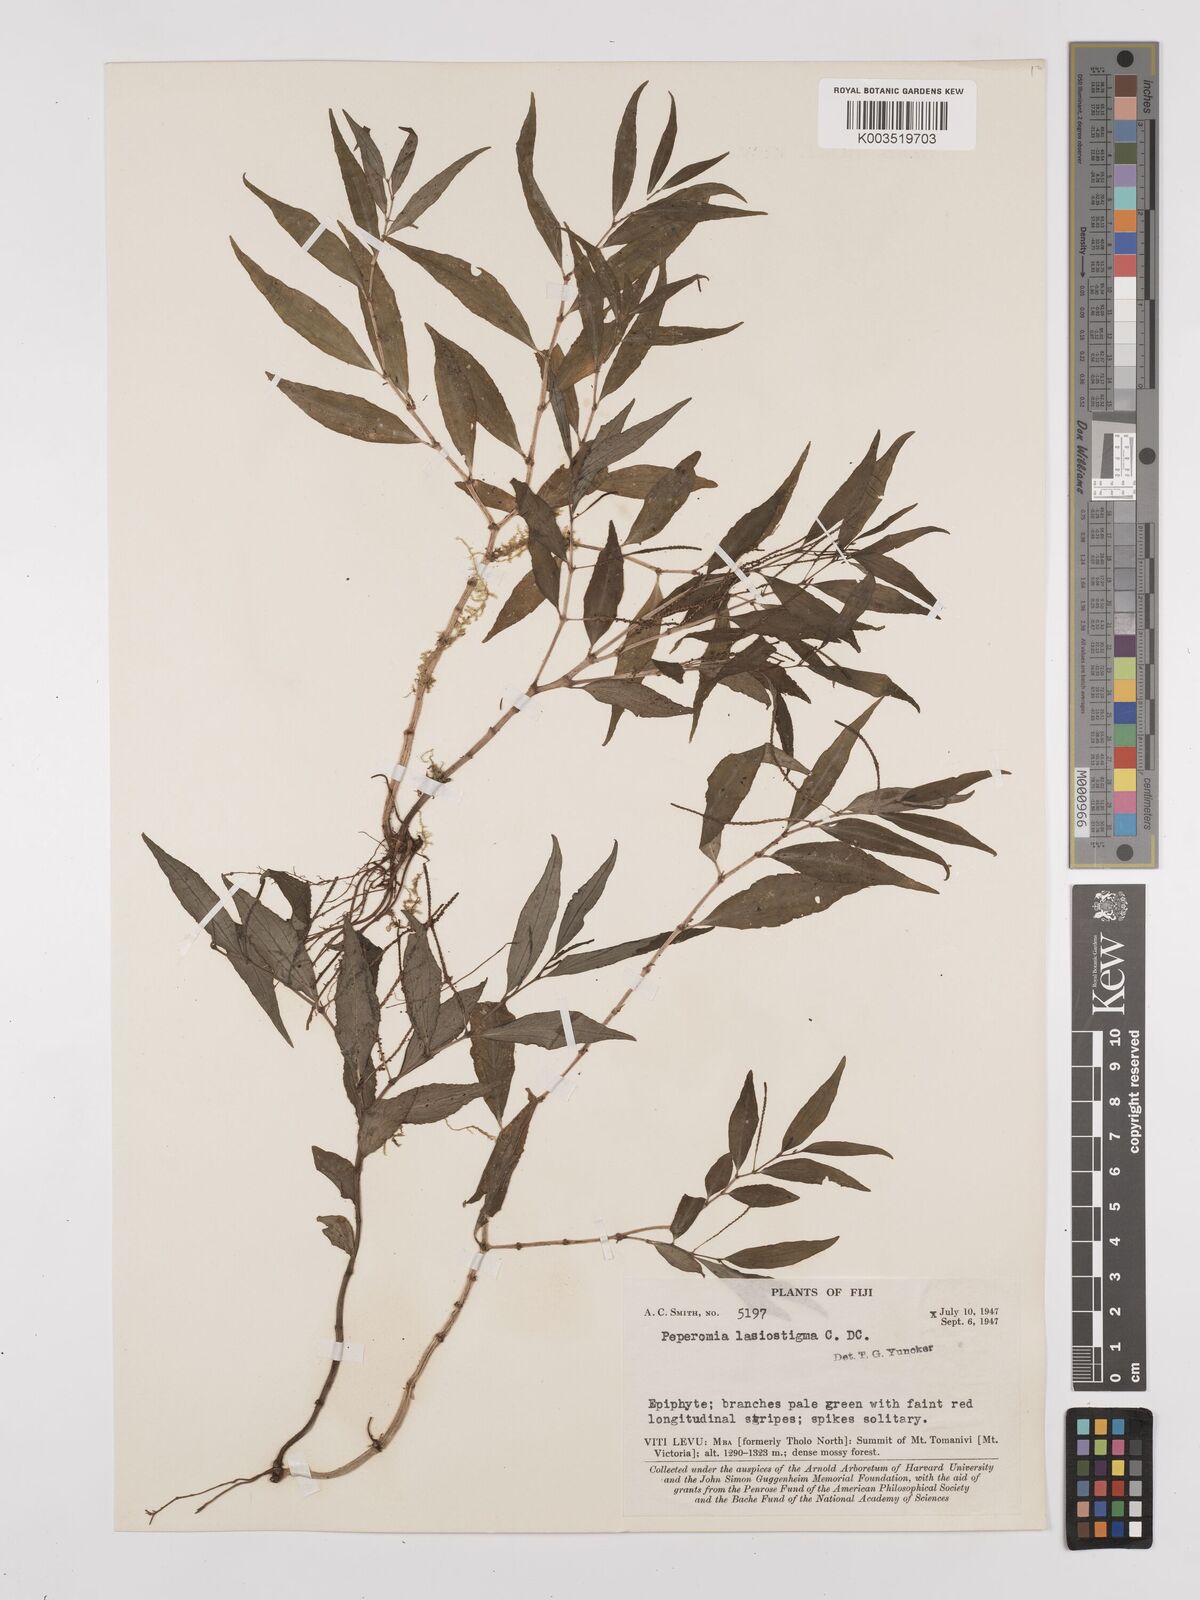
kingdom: Plantae
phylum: Tracheophyta
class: Magnoliopsida
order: Piperales
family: Piperaceae
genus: Peperomia
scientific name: Peperomia lasiostigma
